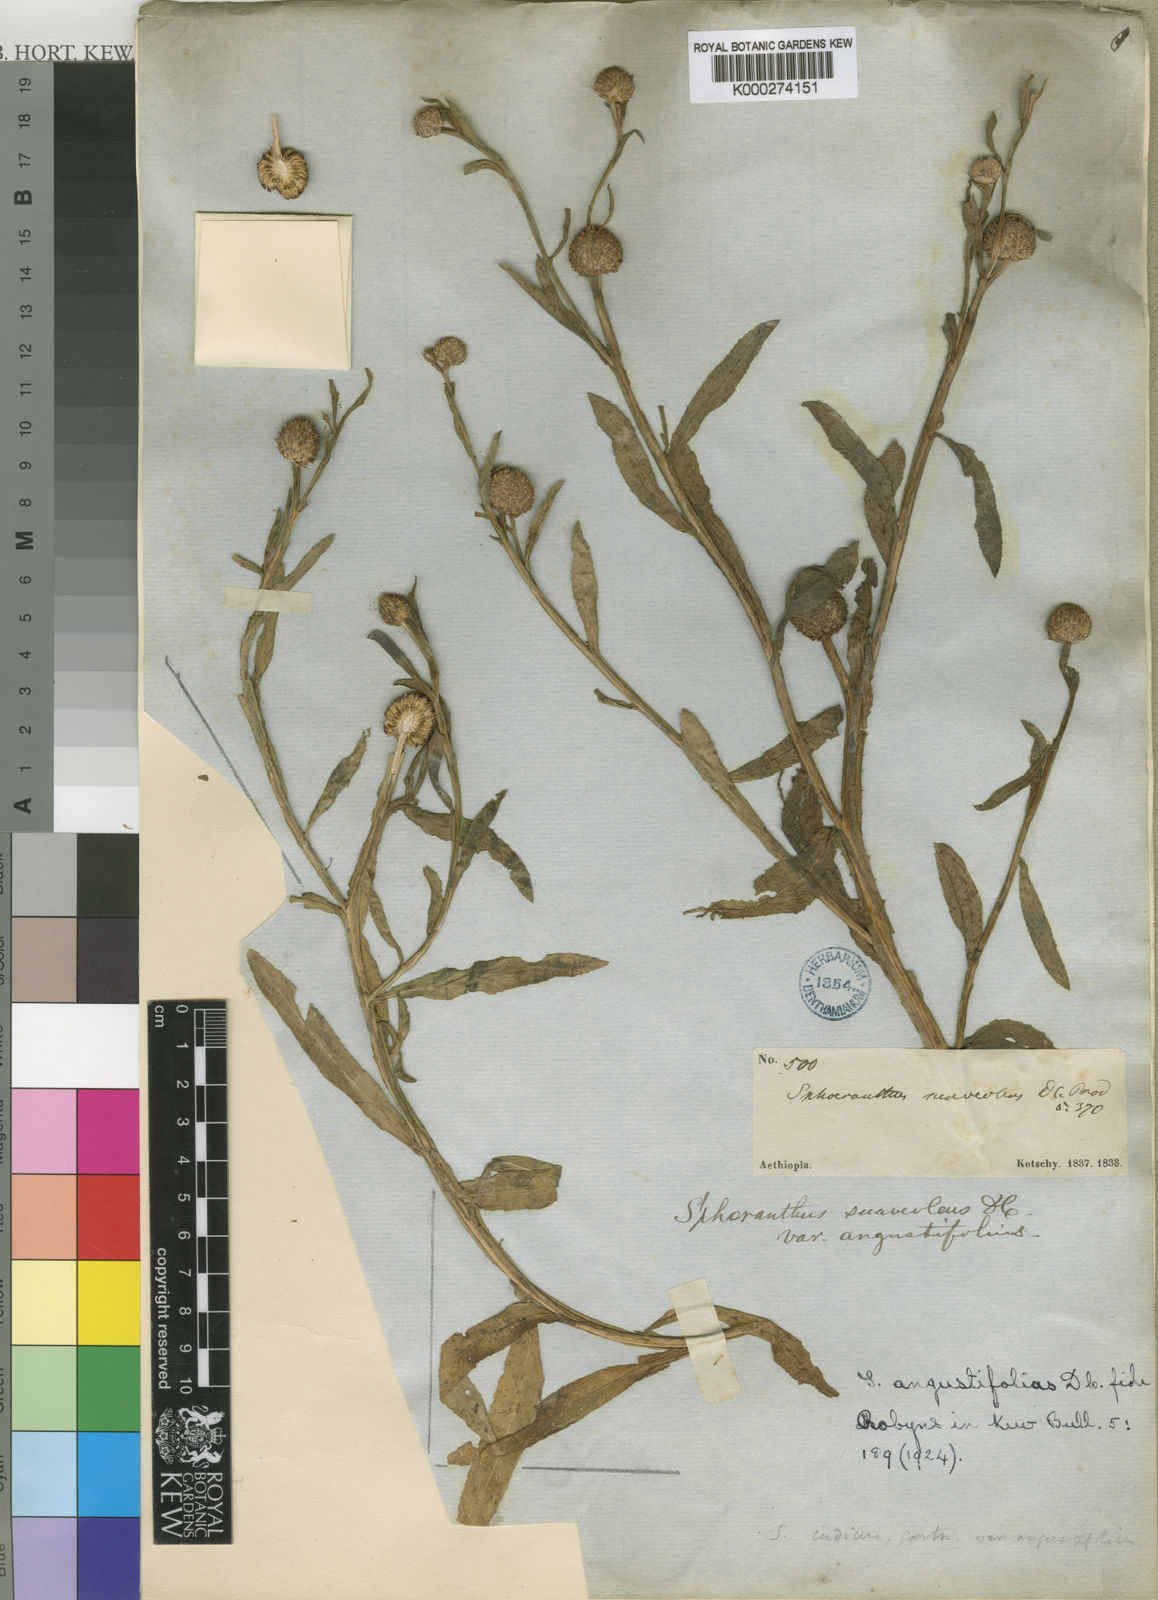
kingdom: Plantae
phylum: Tracheophyta
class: Magnoliopsida
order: Asterales
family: Asteraceae
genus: Sphaeranthus
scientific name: Sphaeranthus suaveolens
